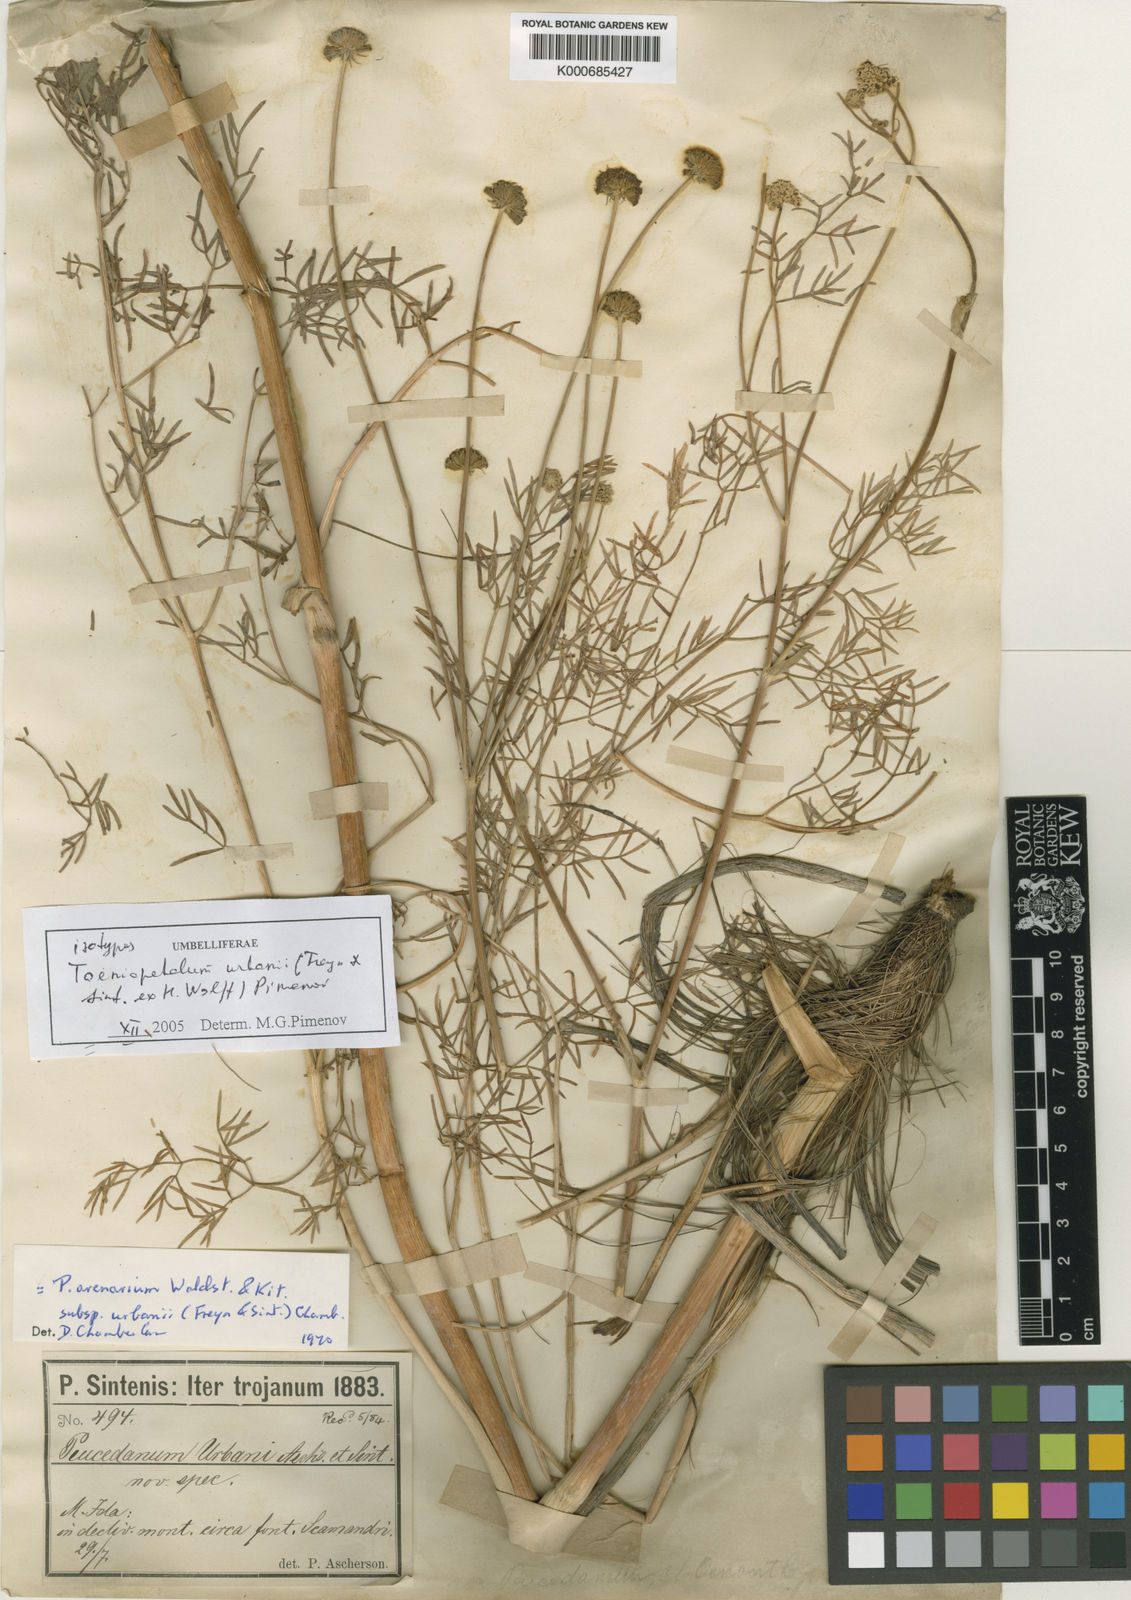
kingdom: Plantae
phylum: Tracheophyta
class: Magnoliopsida
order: Apiales
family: Apiaceae
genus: Peucedanum
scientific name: Peucedanum
